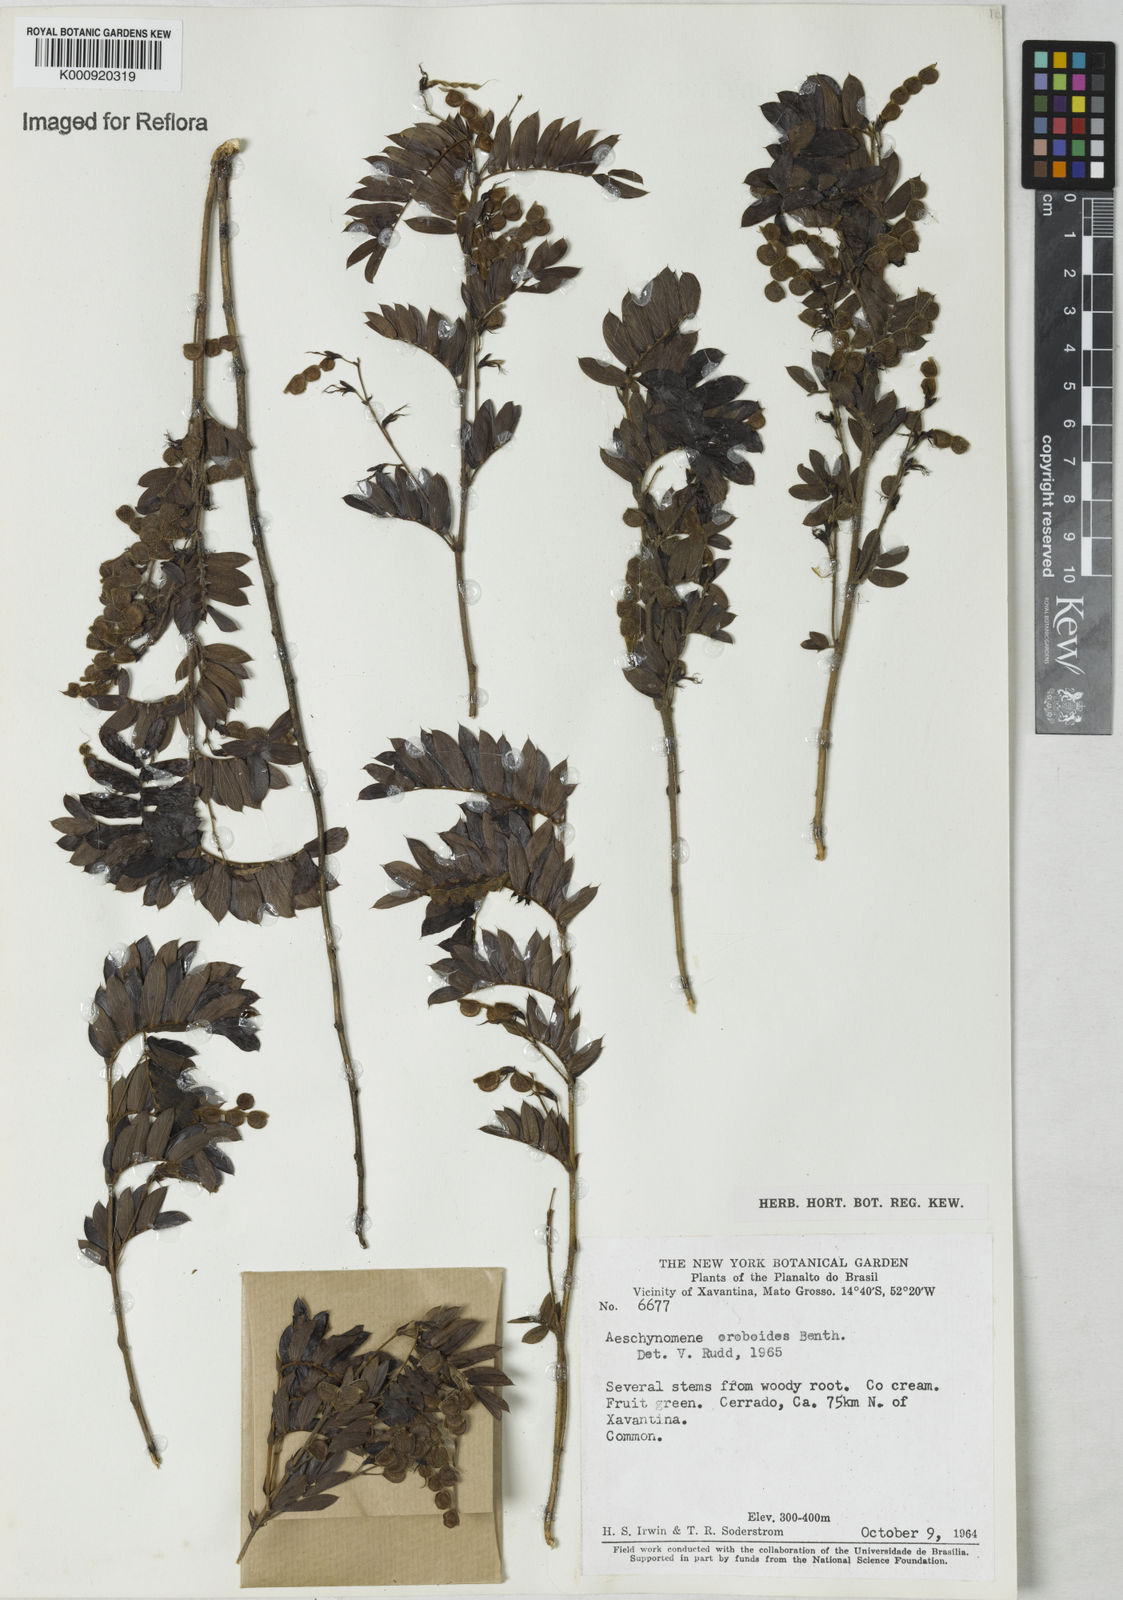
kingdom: Plantae
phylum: Tracheophyta
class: Magnoliopsida
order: Fabales
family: Fabaceae
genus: Ctenodon
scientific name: Ctenodon oroboides
